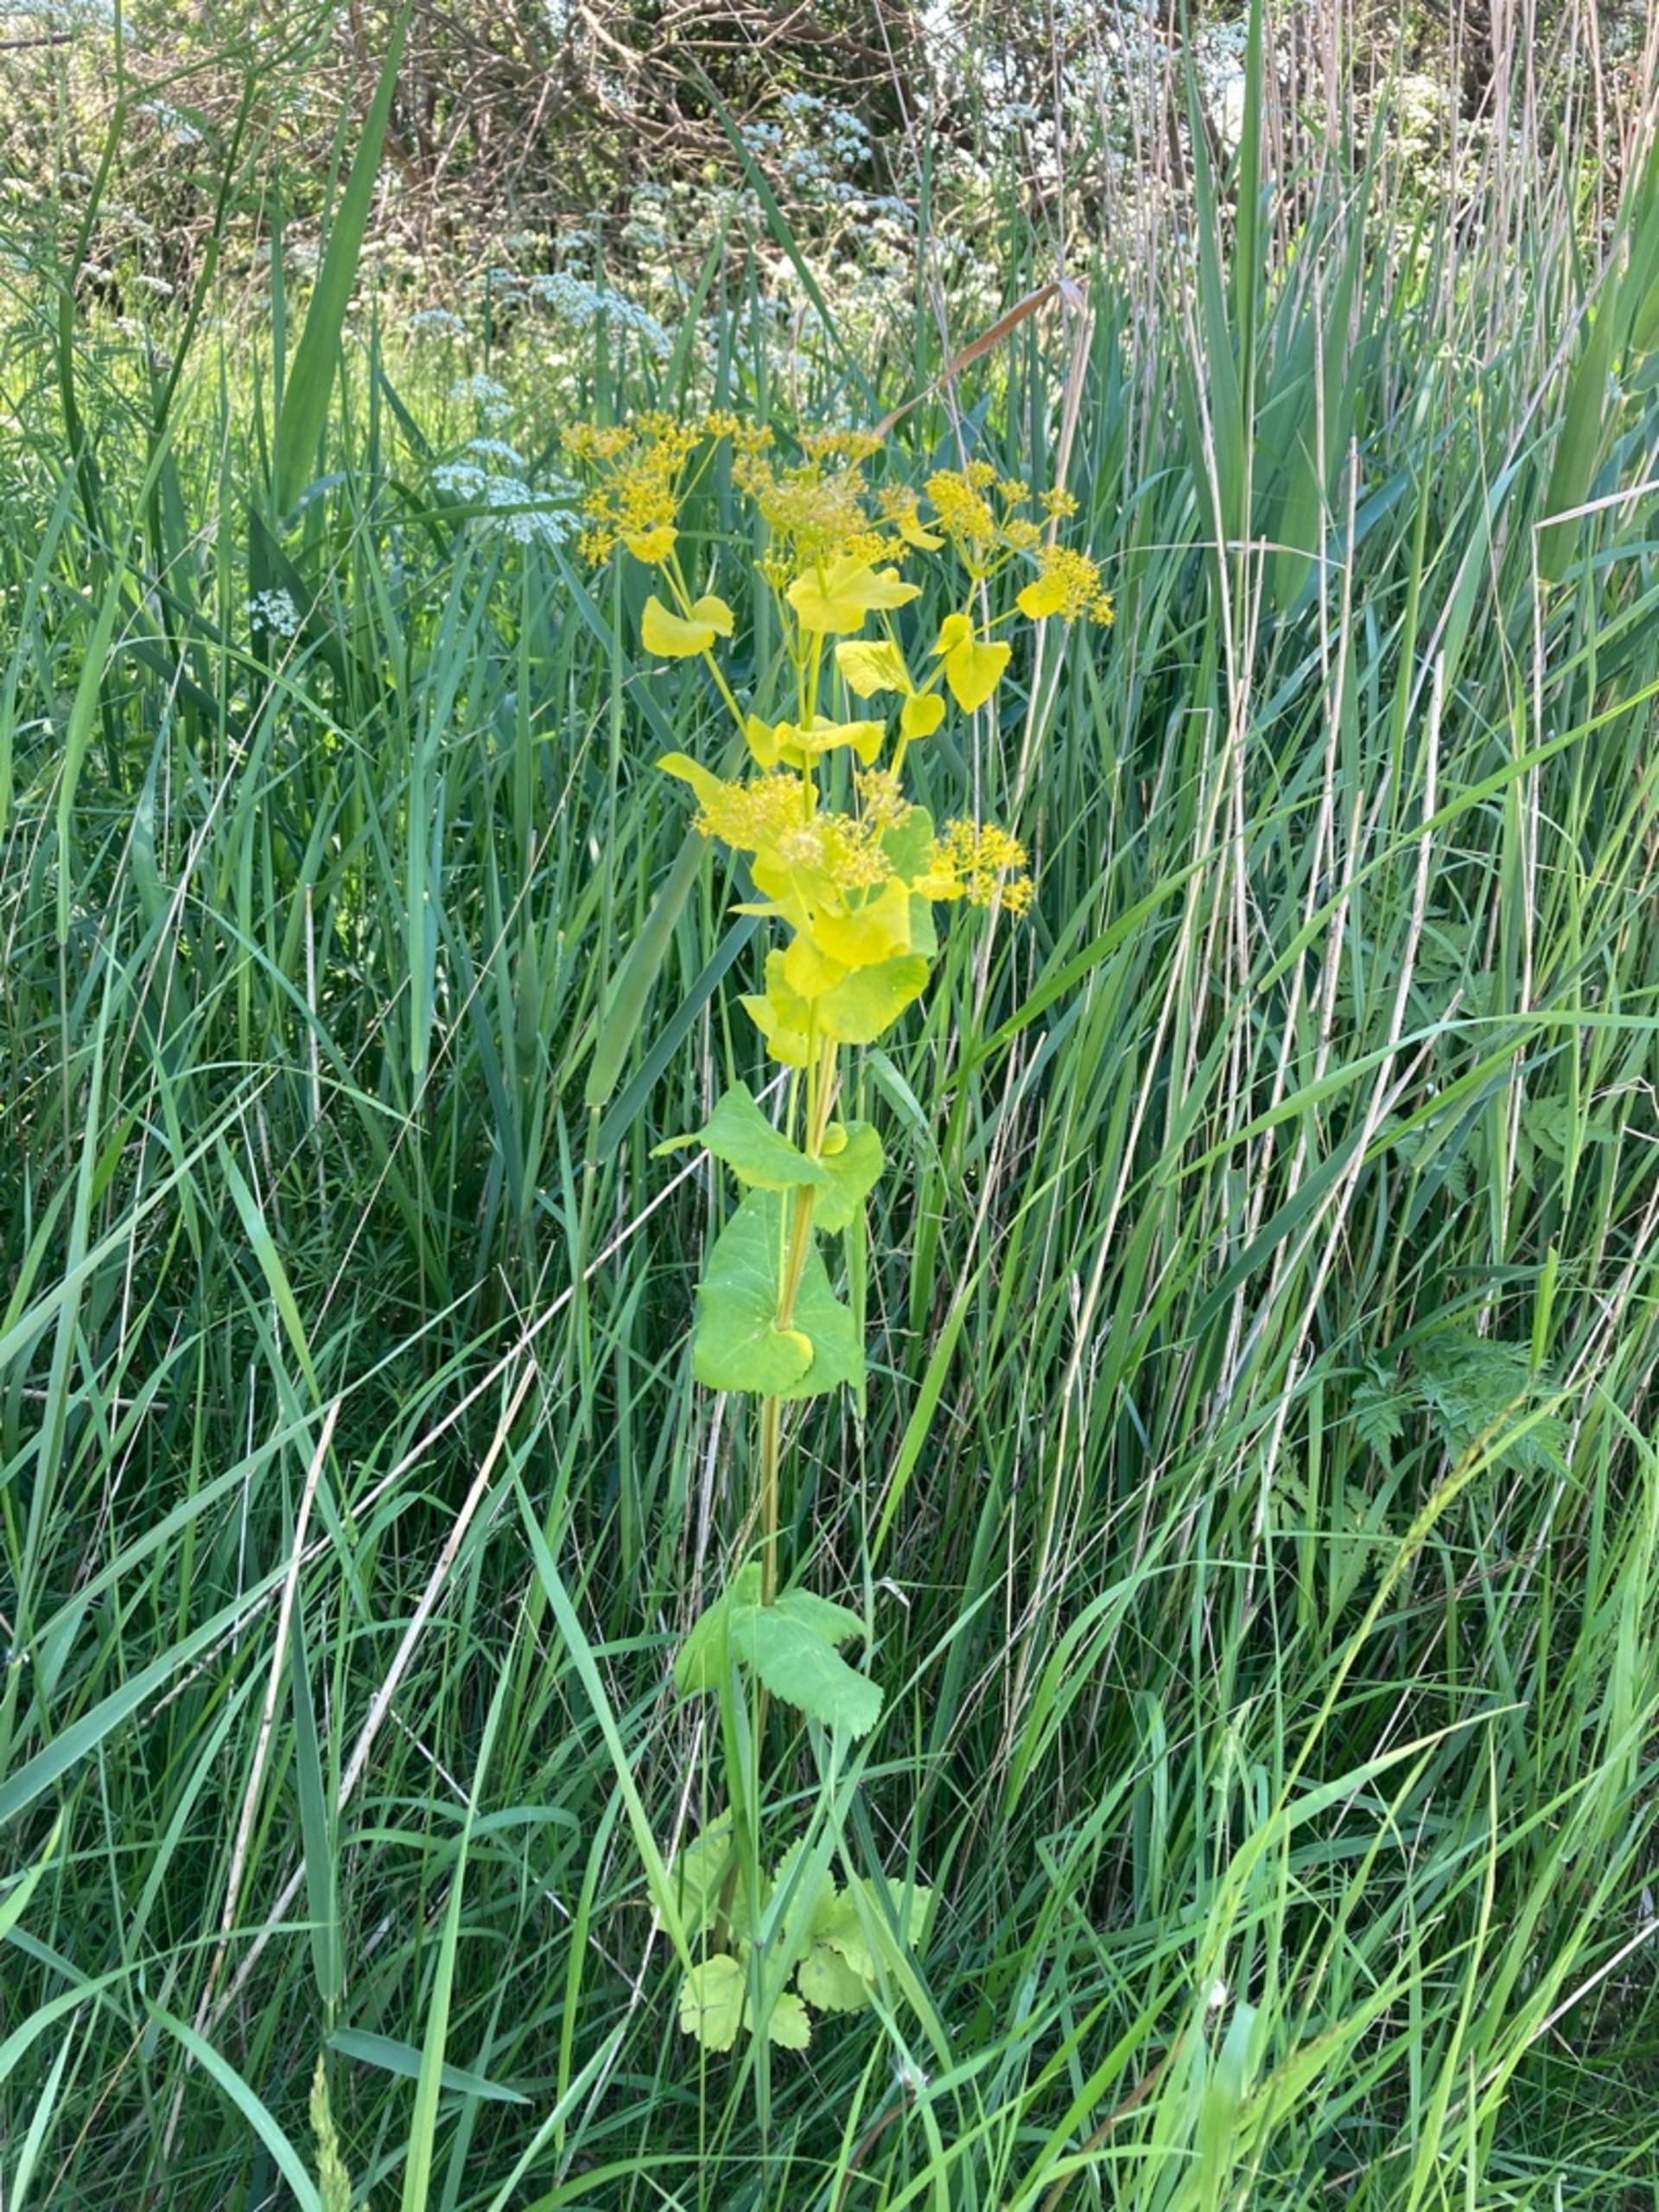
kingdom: Plantae
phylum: Tracheophyta
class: Magnoliopsida
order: Apiales
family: Apiaceae
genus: Smyrnium
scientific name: Smyrnium perfoliatum
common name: Lundgylden
